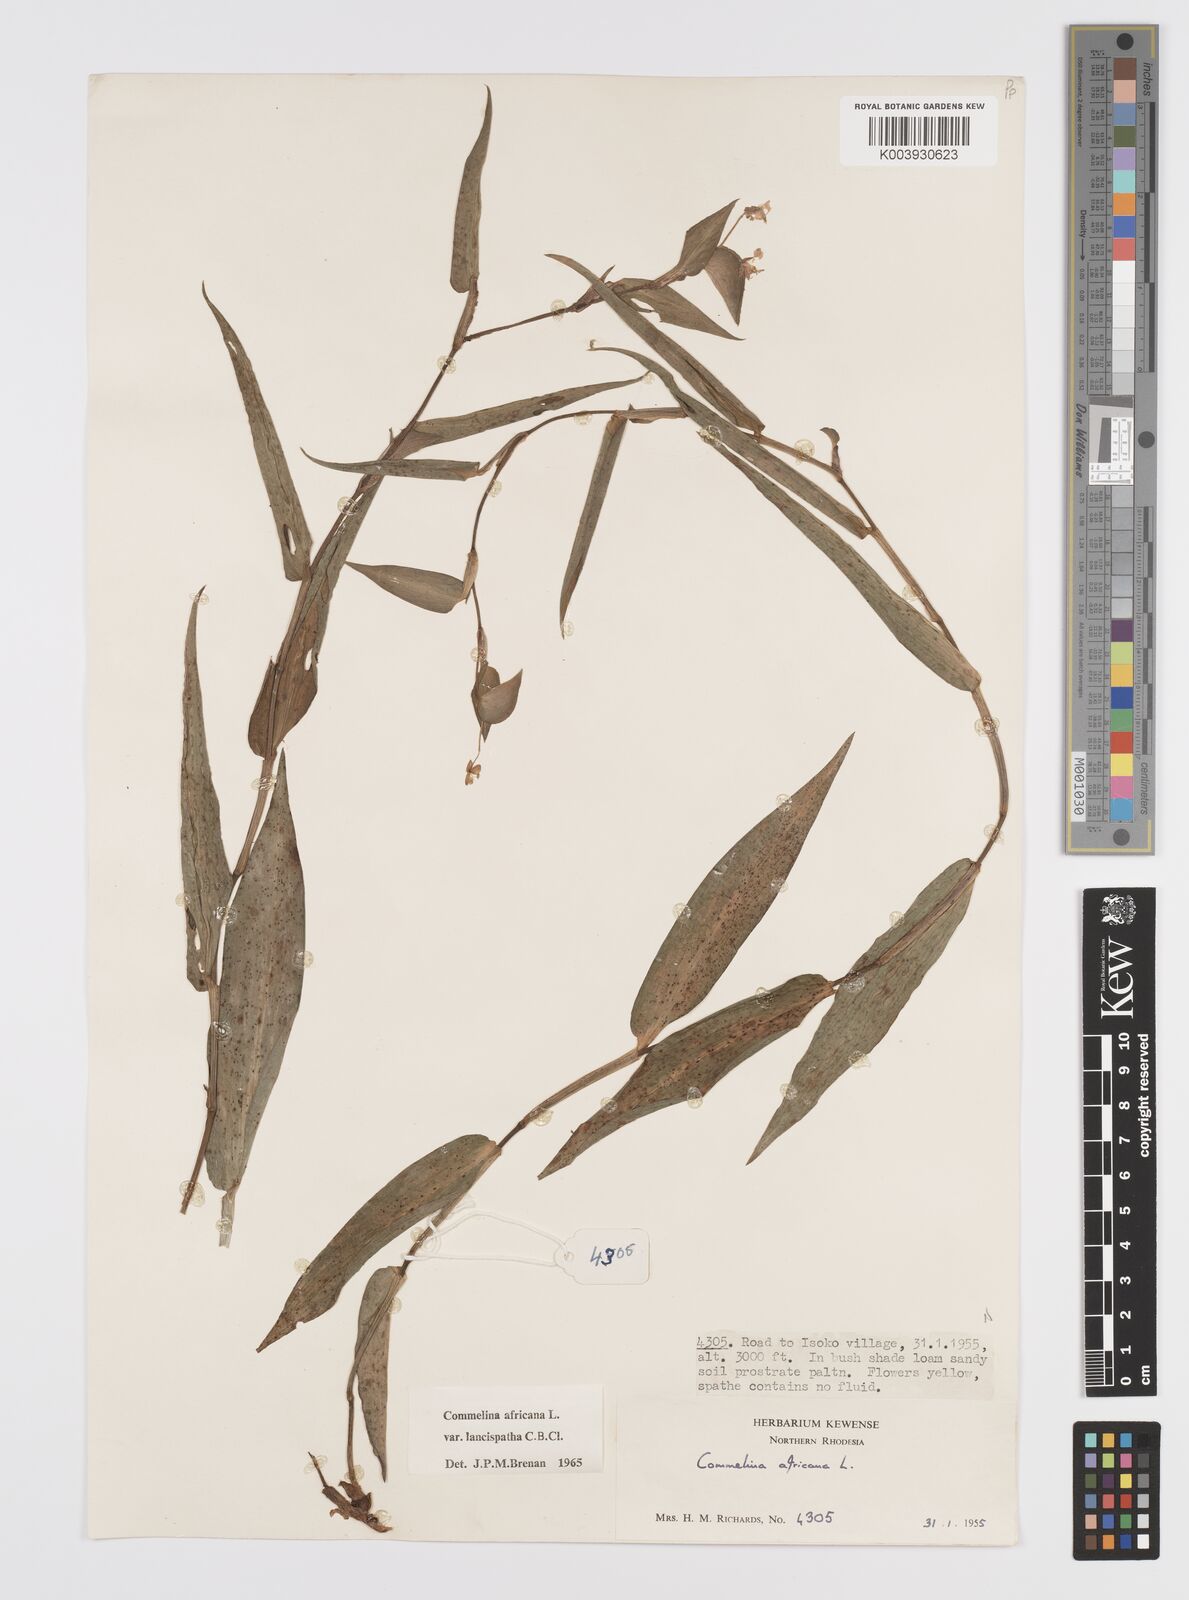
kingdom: Plantae
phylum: Tracheophyta
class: Liliopsida
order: Commelinales
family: Commelinaceae
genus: Commelina
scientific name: Commelina africana
